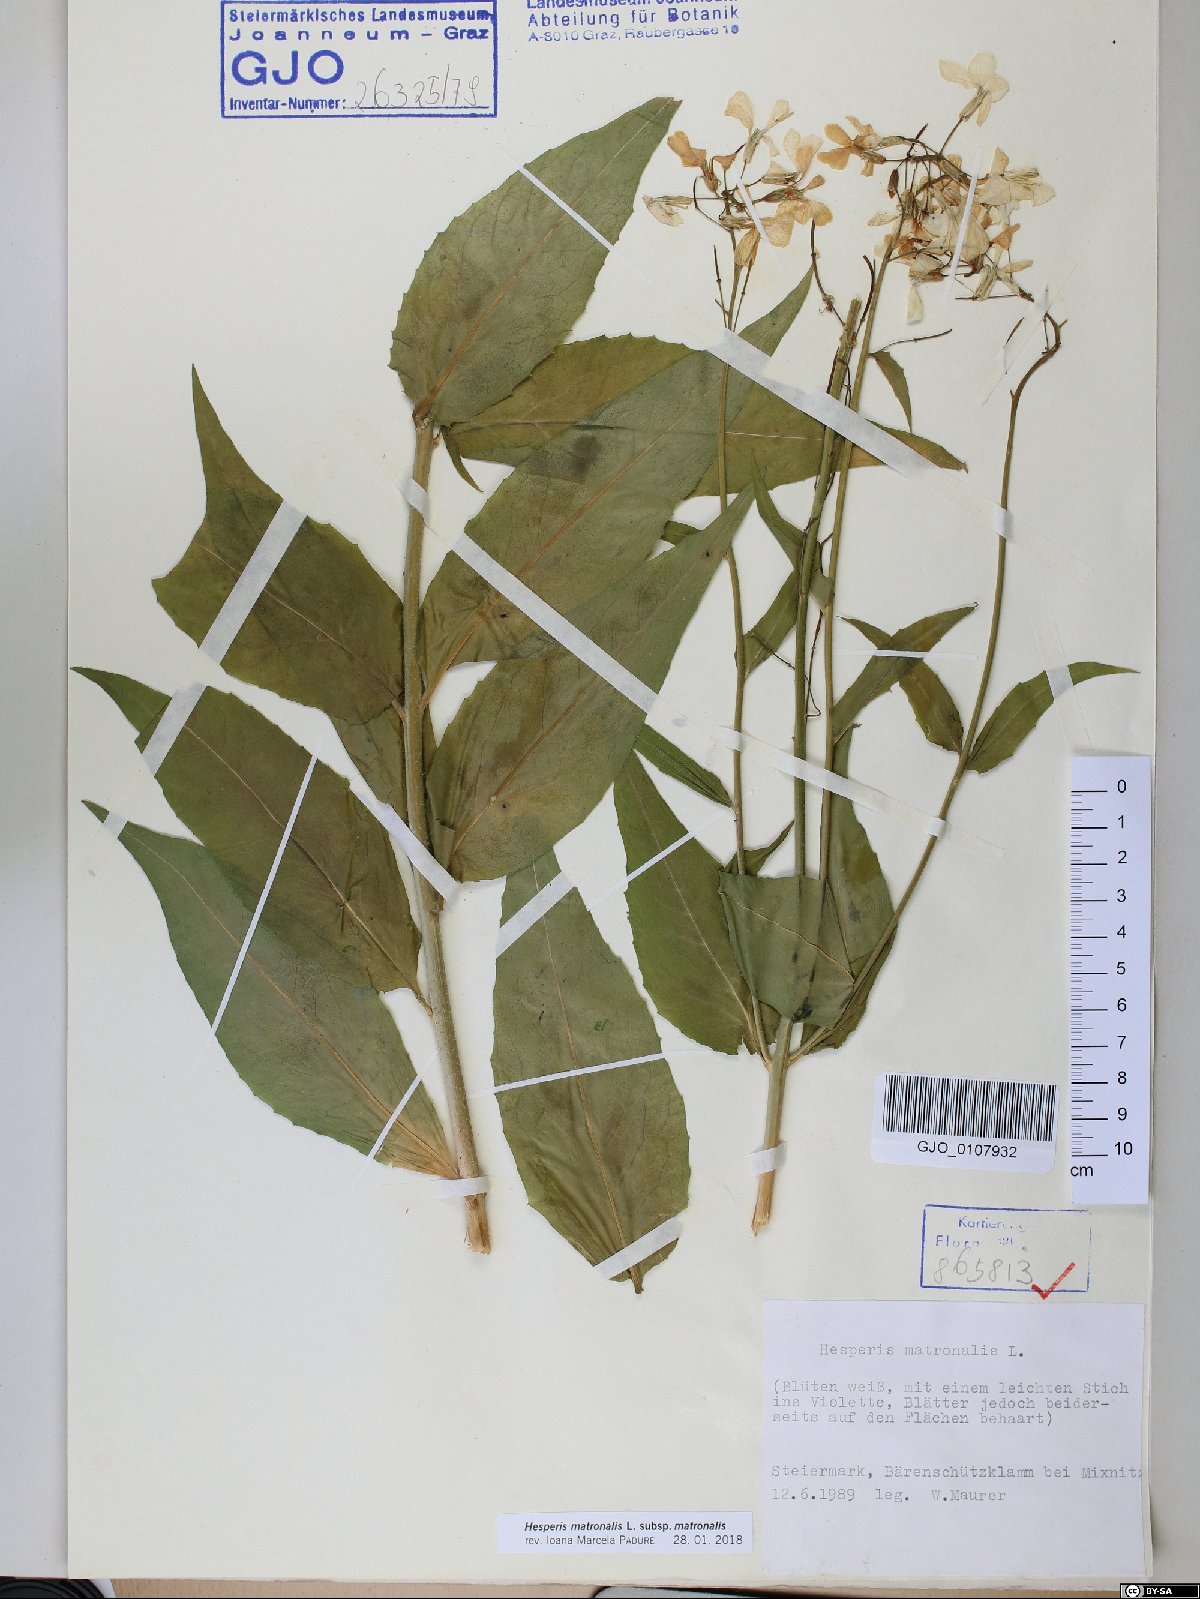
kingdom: Plantae
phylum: Tracheophyta
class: Magnoliopsida
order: Brassicales
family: Brassicaceae
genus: Hesperis
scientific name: Hesperis matronalis
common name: Dame's-violet
